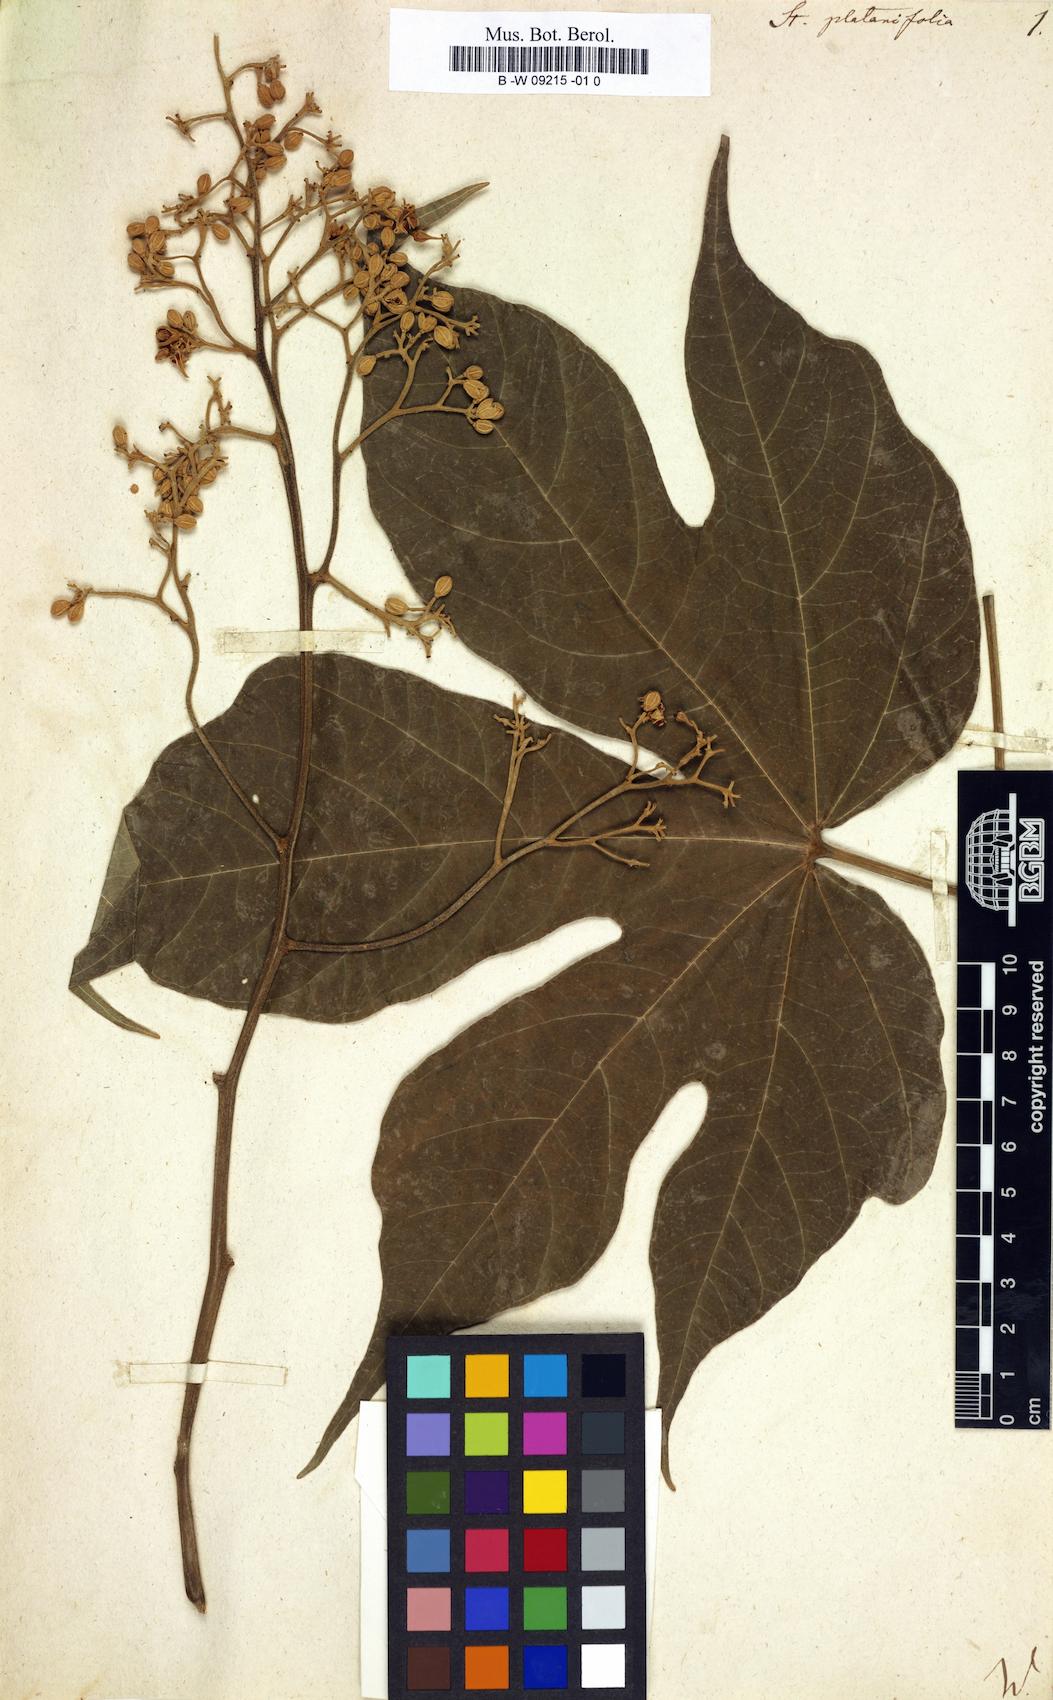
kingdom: Plantae
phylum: Tracheophyta
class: Magnoliopsida
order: Malvales
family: Malvaceae
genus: Firmiana
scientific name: Firmiana simplex
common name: Chinese parasoltree
